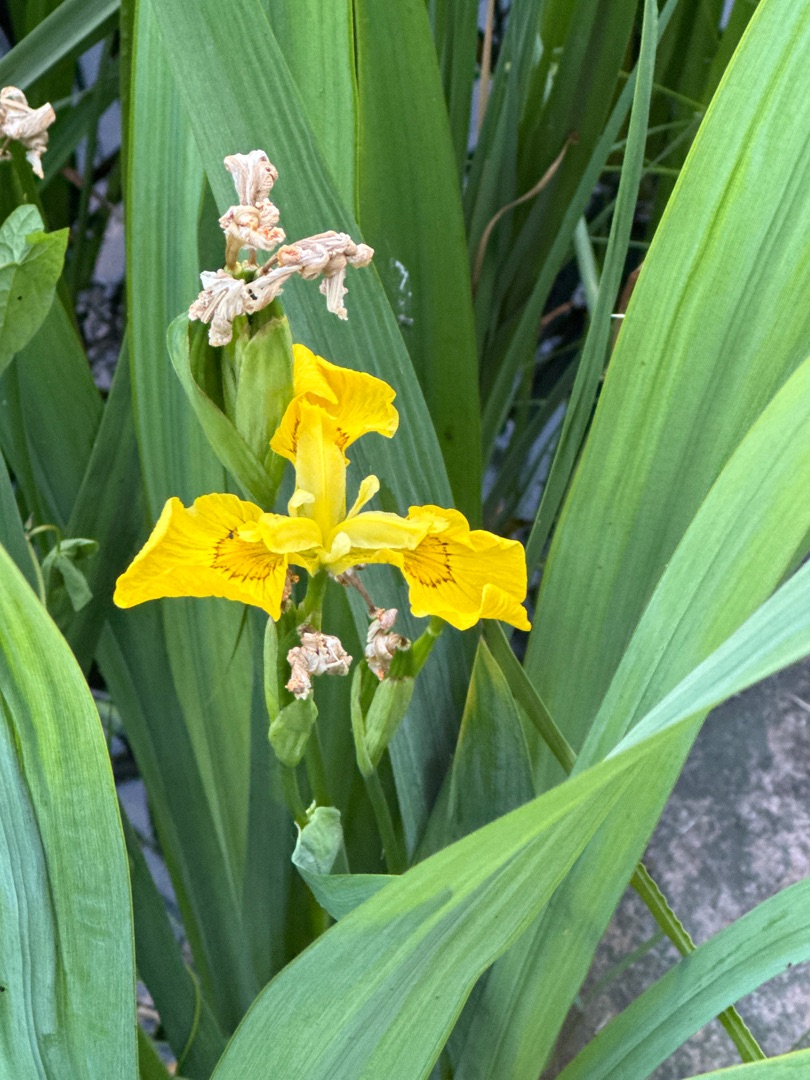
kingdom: Plantae
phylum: Tracheophyta
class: Liliopsida
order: Asparagales
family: Iridaceae
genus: Iris
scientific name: Iris pseudacorus
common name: Gul iris
